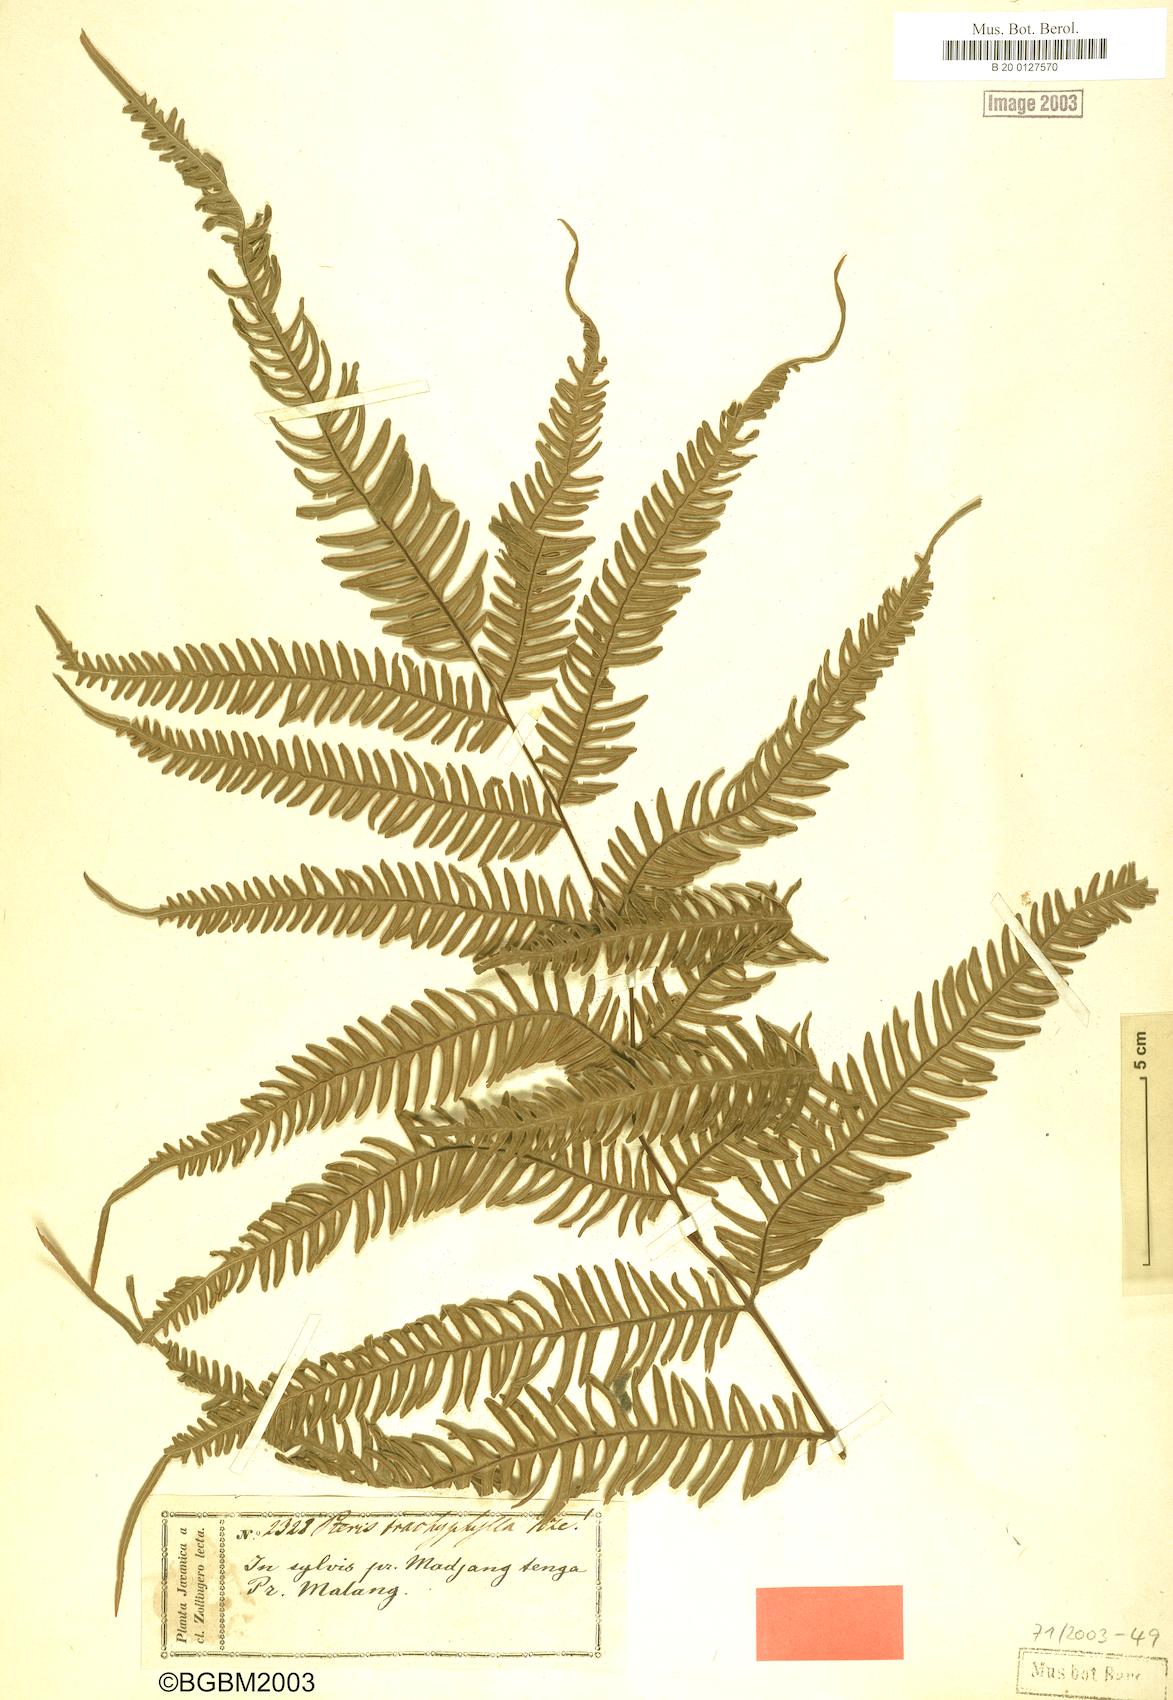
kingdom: Plantae
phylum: Tracheophyta
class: Polypodiopsida
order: Polypodiales
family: Pteridaceae
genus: Pteris
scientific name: Pteris quadriaurita
